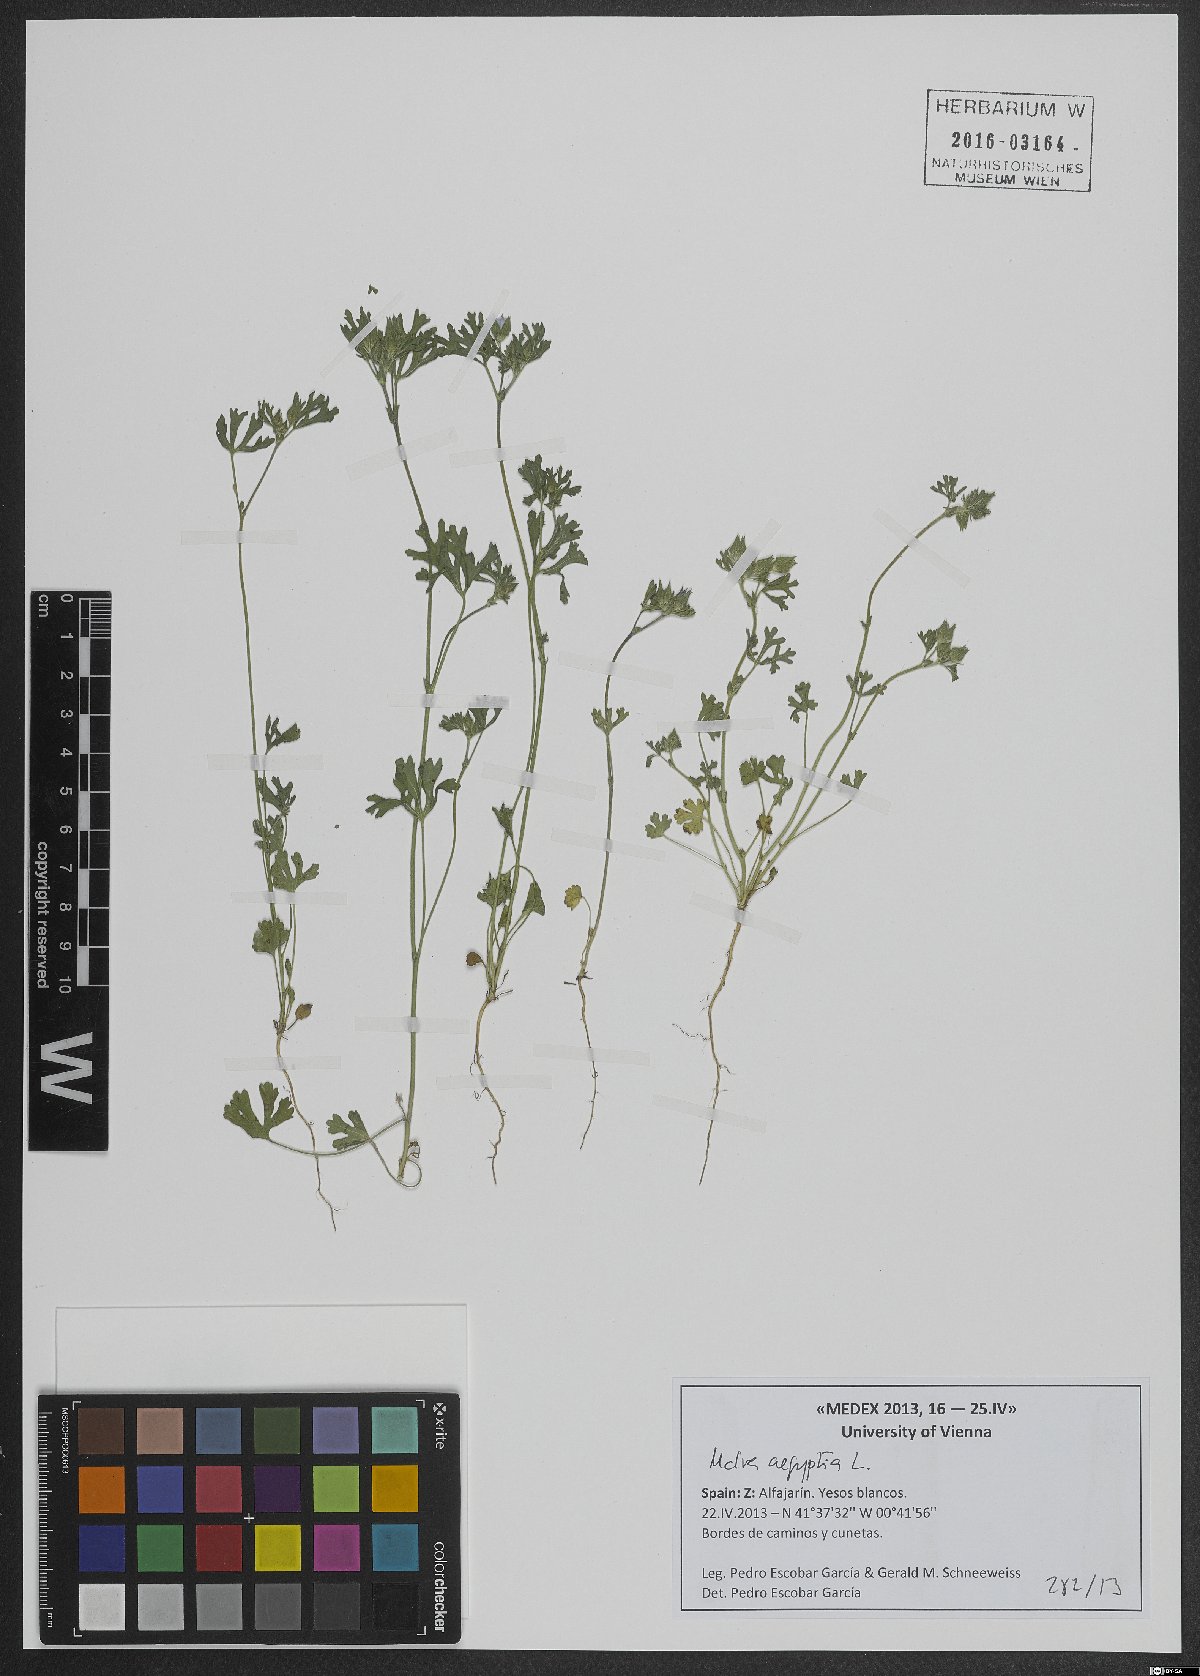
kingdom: Plantae
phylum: Tracheophyta
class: Magnoliopsida
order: Malvales
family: Malvaceae
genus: Malva
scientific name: Malva aegyptia
